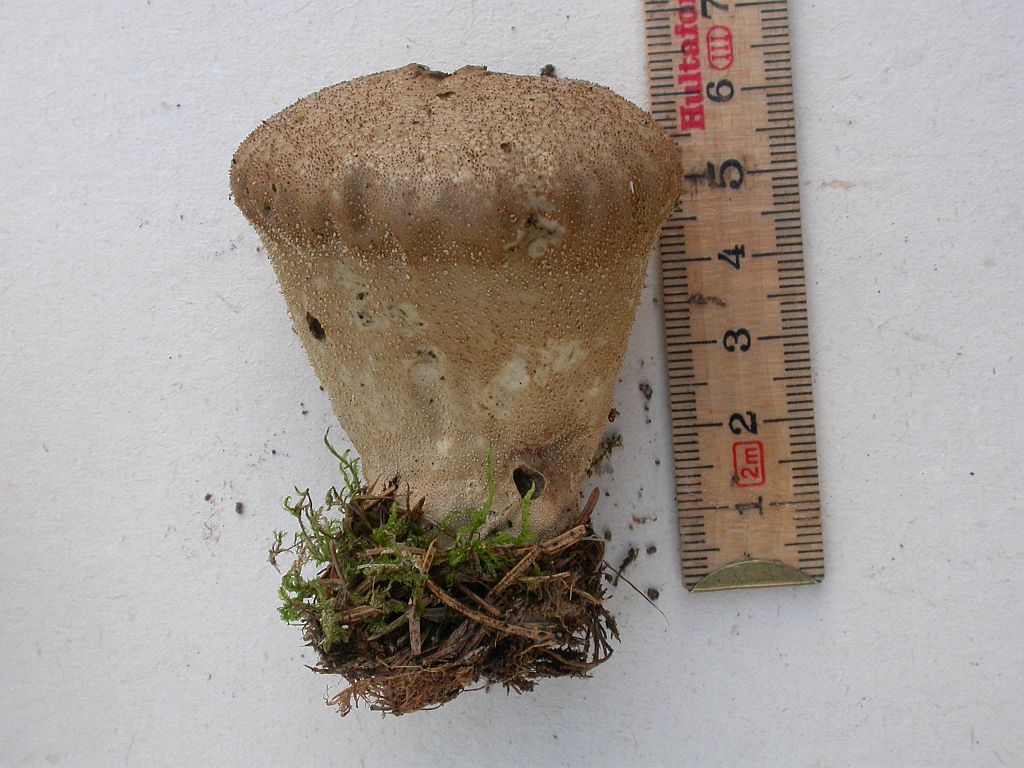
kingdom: Fungi
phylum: Basidiomycota
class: Agaricomycetes
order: Agaricales
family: Agaricaceae
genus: Lycoperdon
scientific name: Lycoperdon
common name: støvbold
